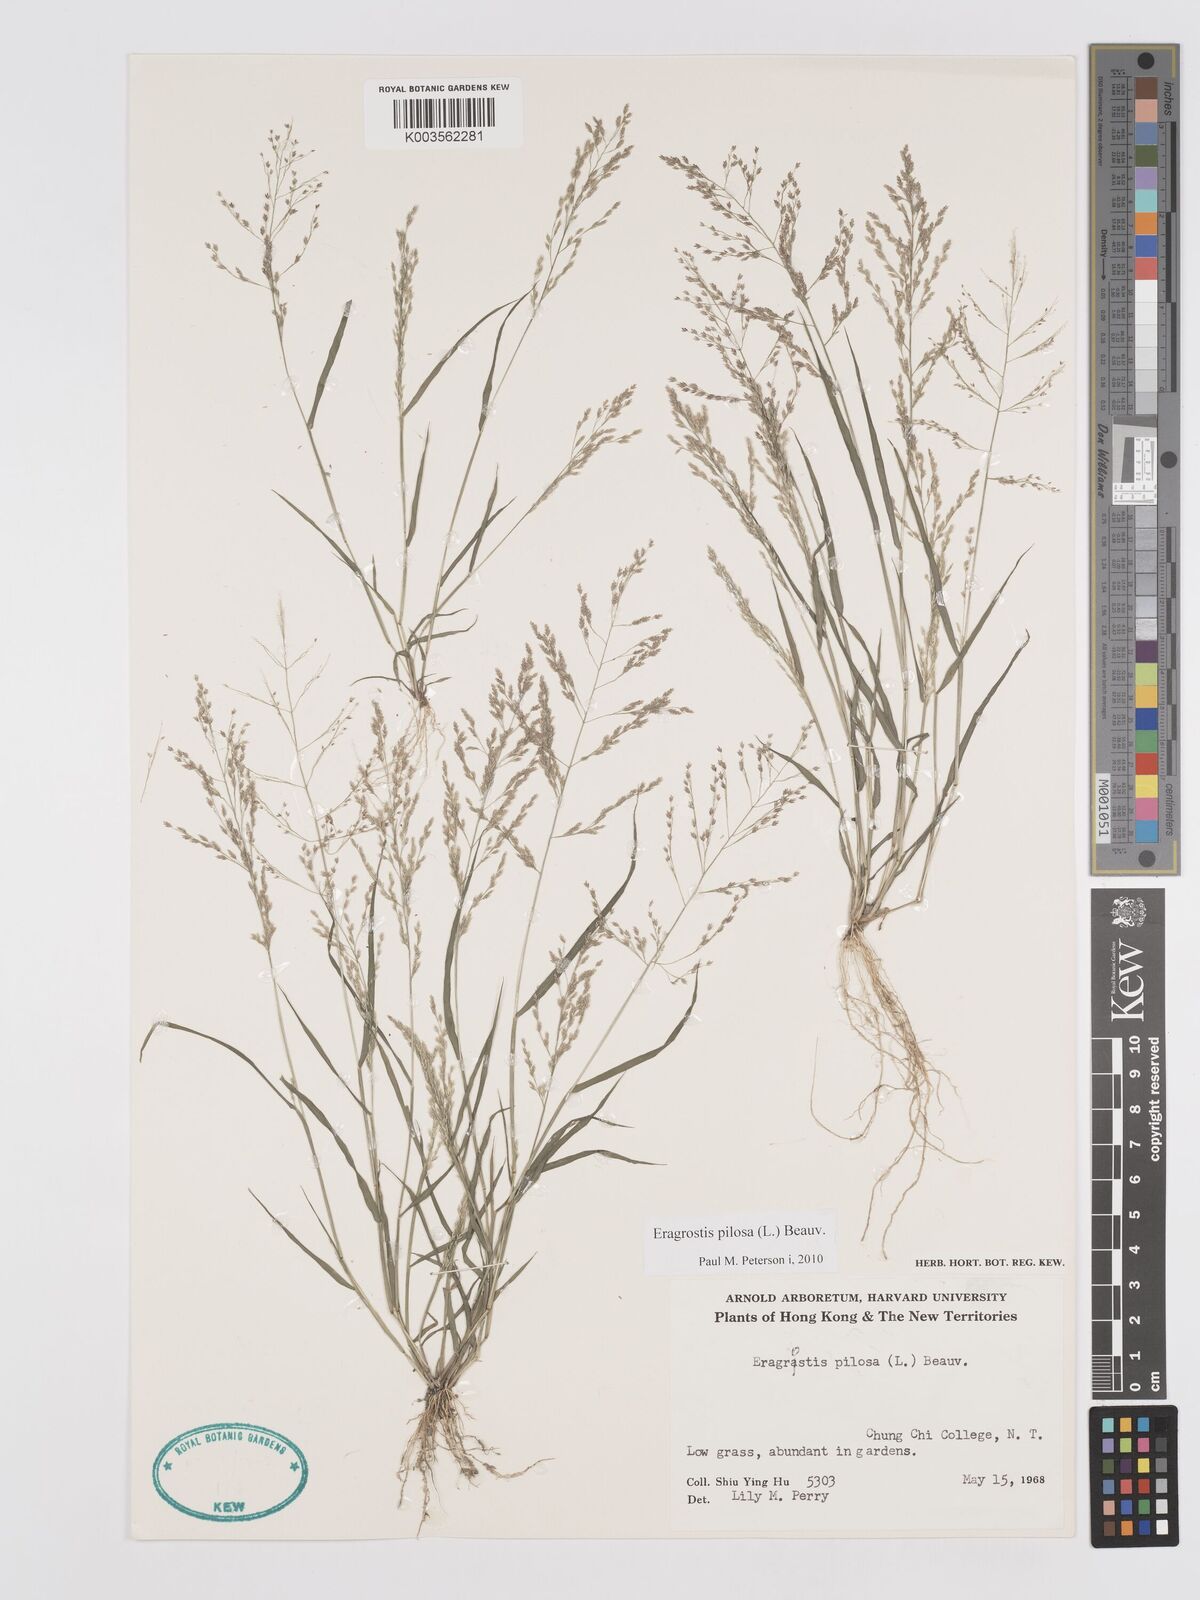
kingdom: Plantae
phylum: Tracheophyta
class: Liliopsida
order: Poales
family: Poaceae
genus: Eragrostis
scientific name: Eragrostis pilosa
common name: Indian lovegrass
